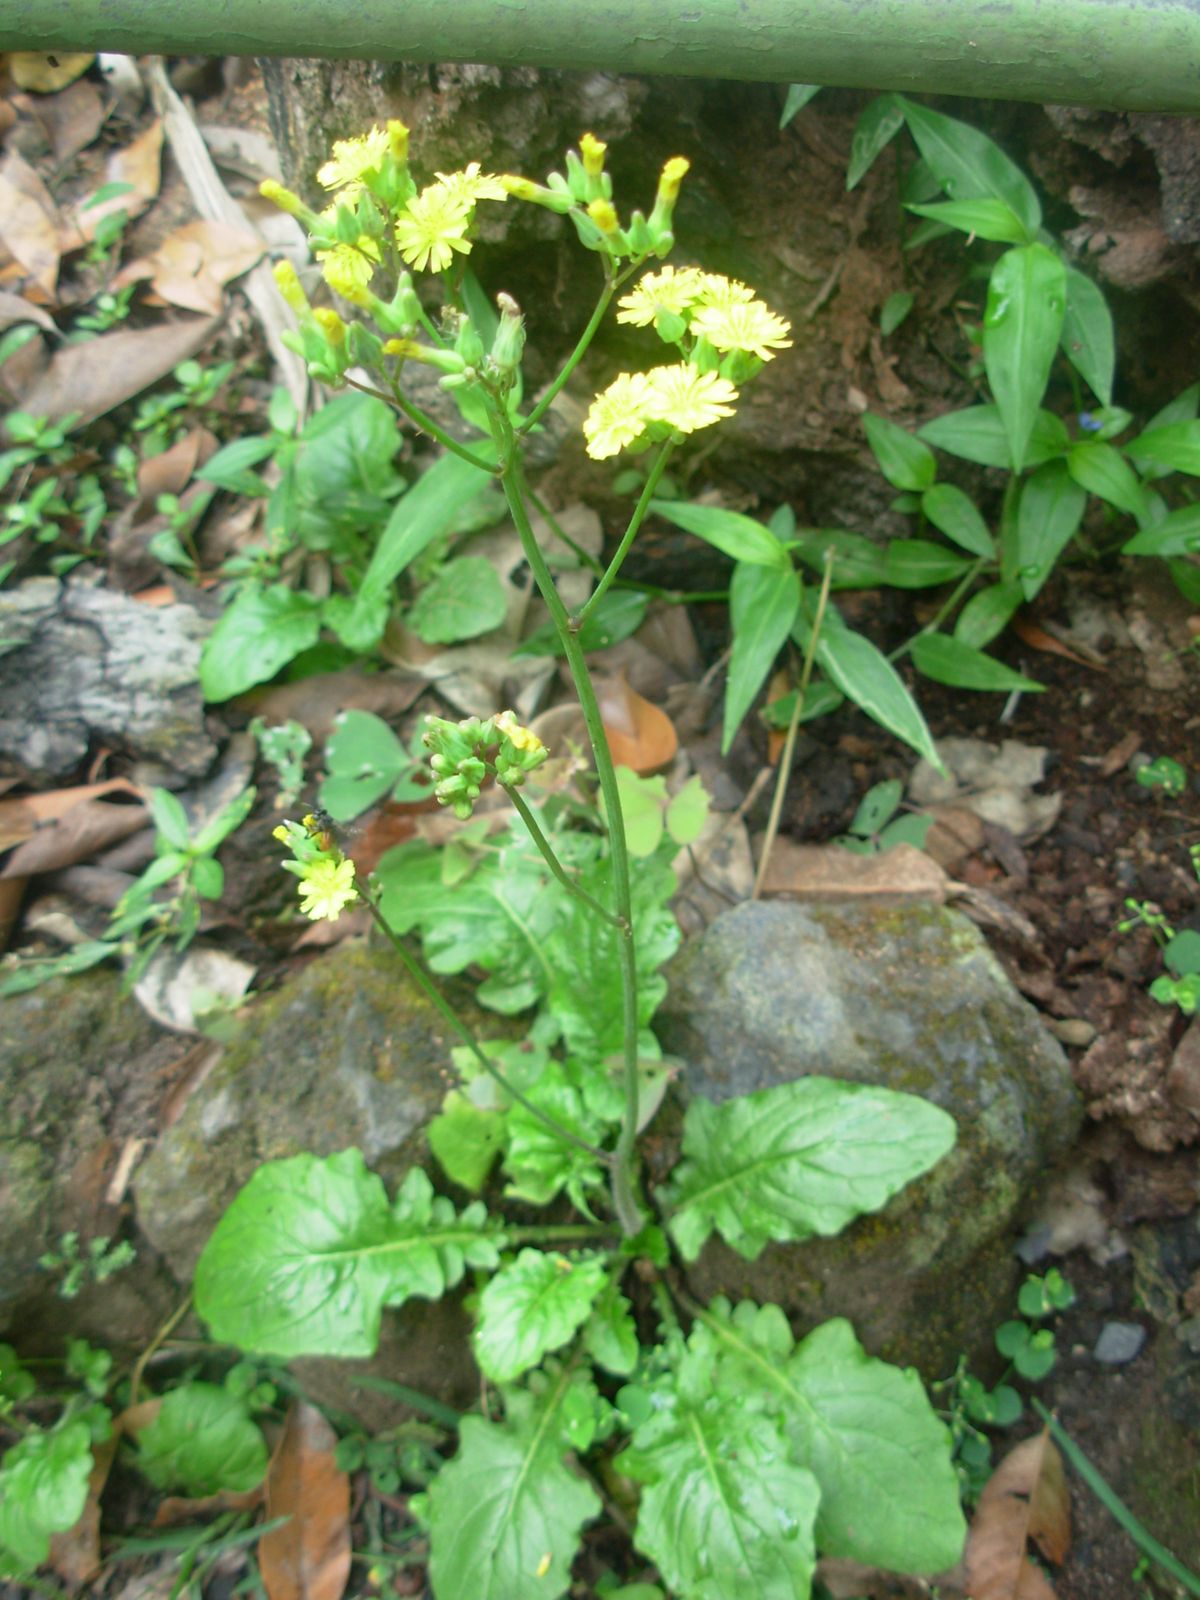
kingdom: Plantae
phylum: Tracheophyta
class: Magnoliopsida
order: Asterales
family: Asteraceae
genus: Youngia
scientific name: Youngia japonica
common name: Oriental false hawksbeard
